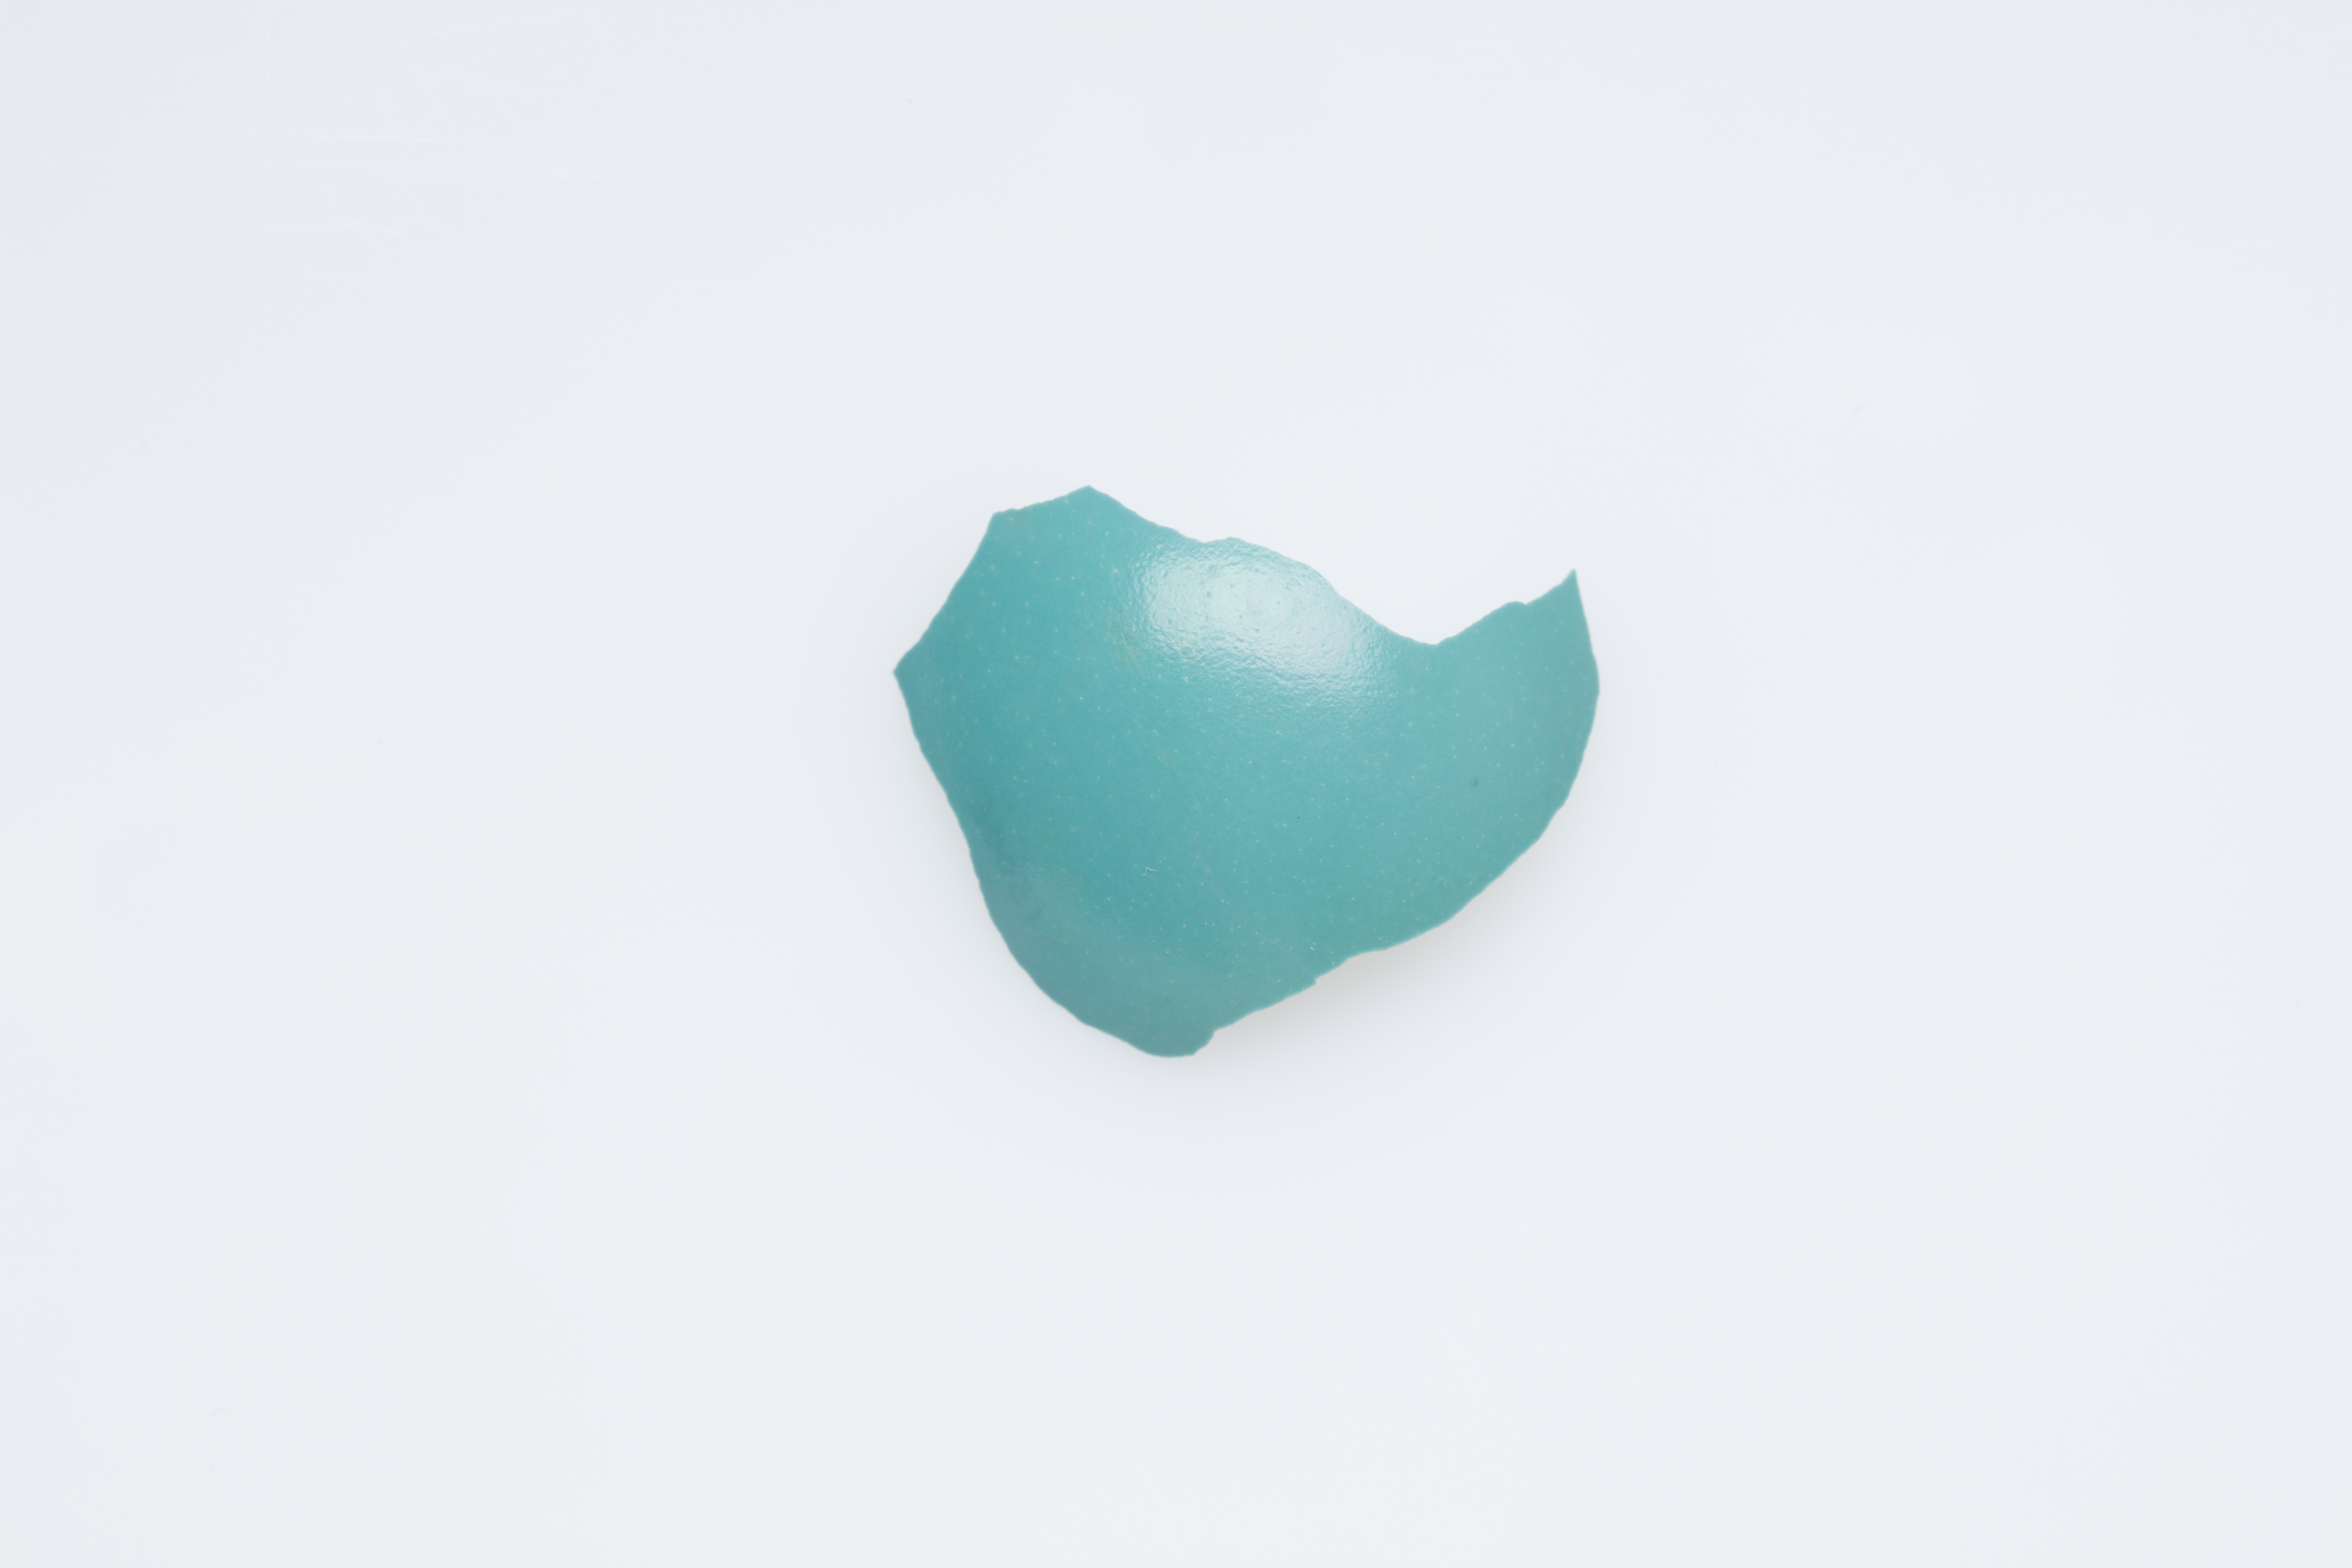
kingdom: Animalia
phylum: Chordata
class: Aves
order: Tinamiformes
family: Tinamidae
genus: Tinamus
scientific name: Tinamus major
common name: Great tinamou
